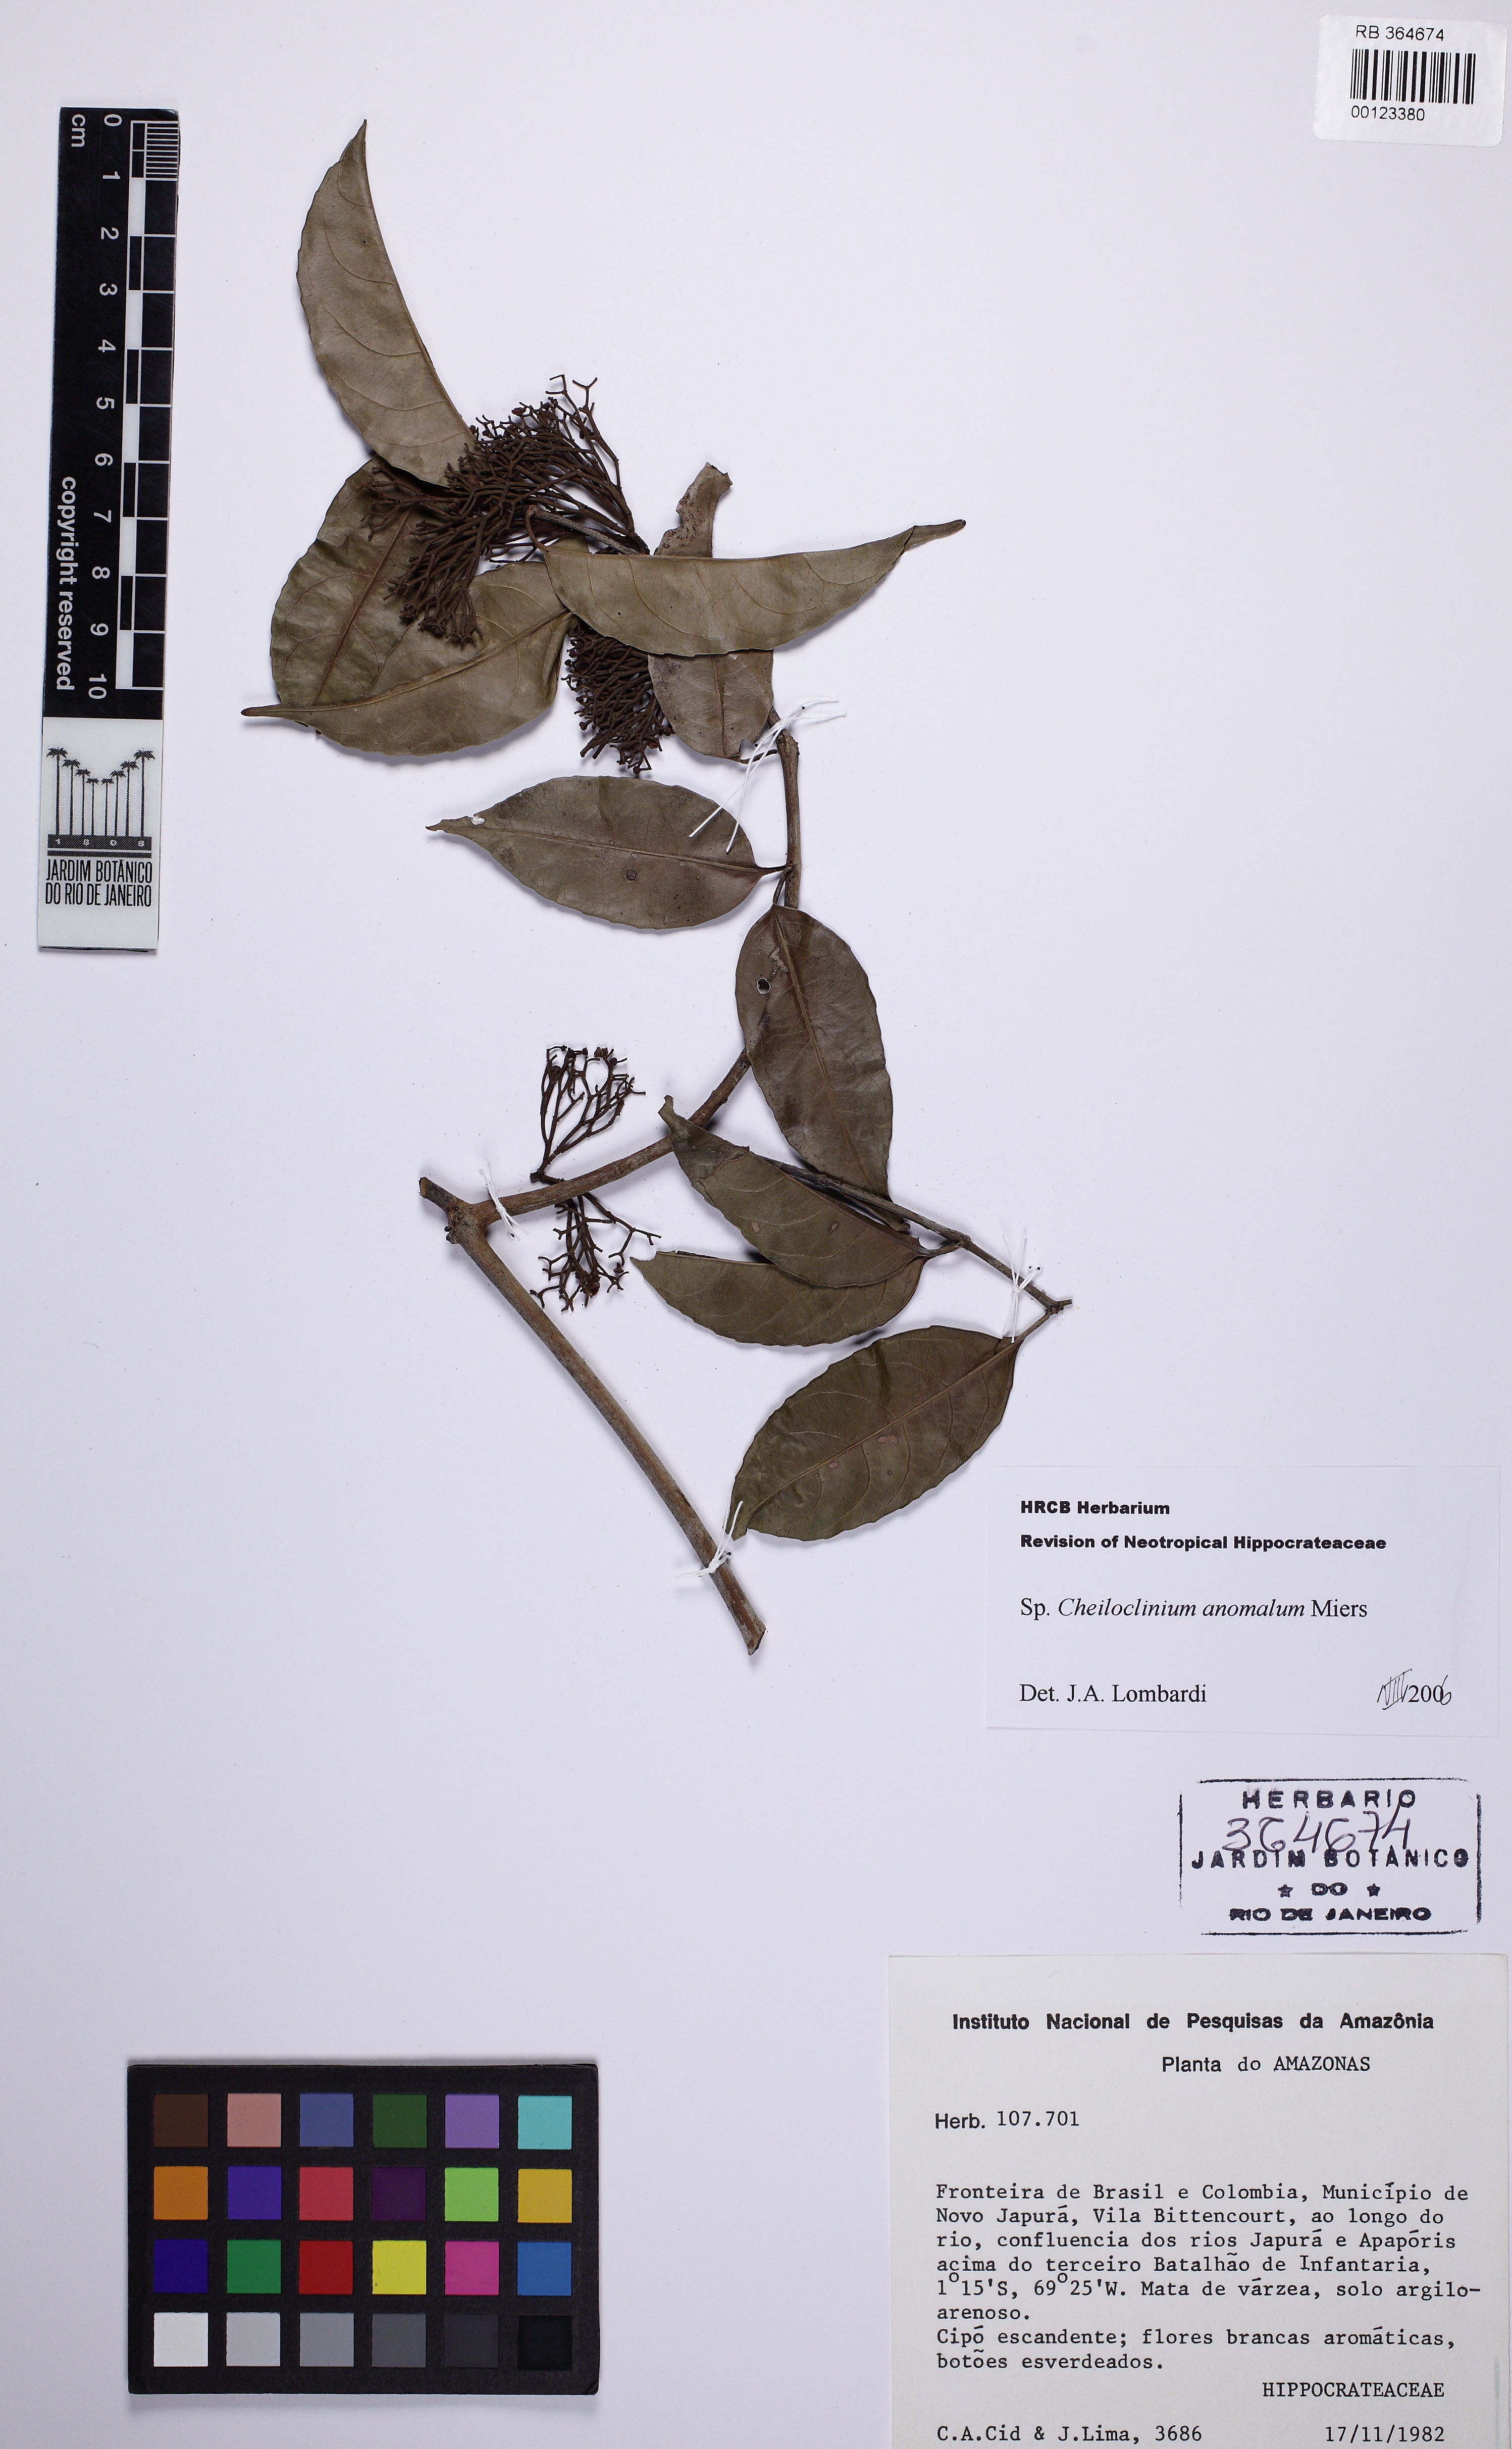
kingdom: Plantae
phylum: Tracheophyta
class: Magnoliopsida
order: Celastrales
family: Celastraceae
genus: Cheiloclinium
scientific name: Cheiloclinium anomalum
